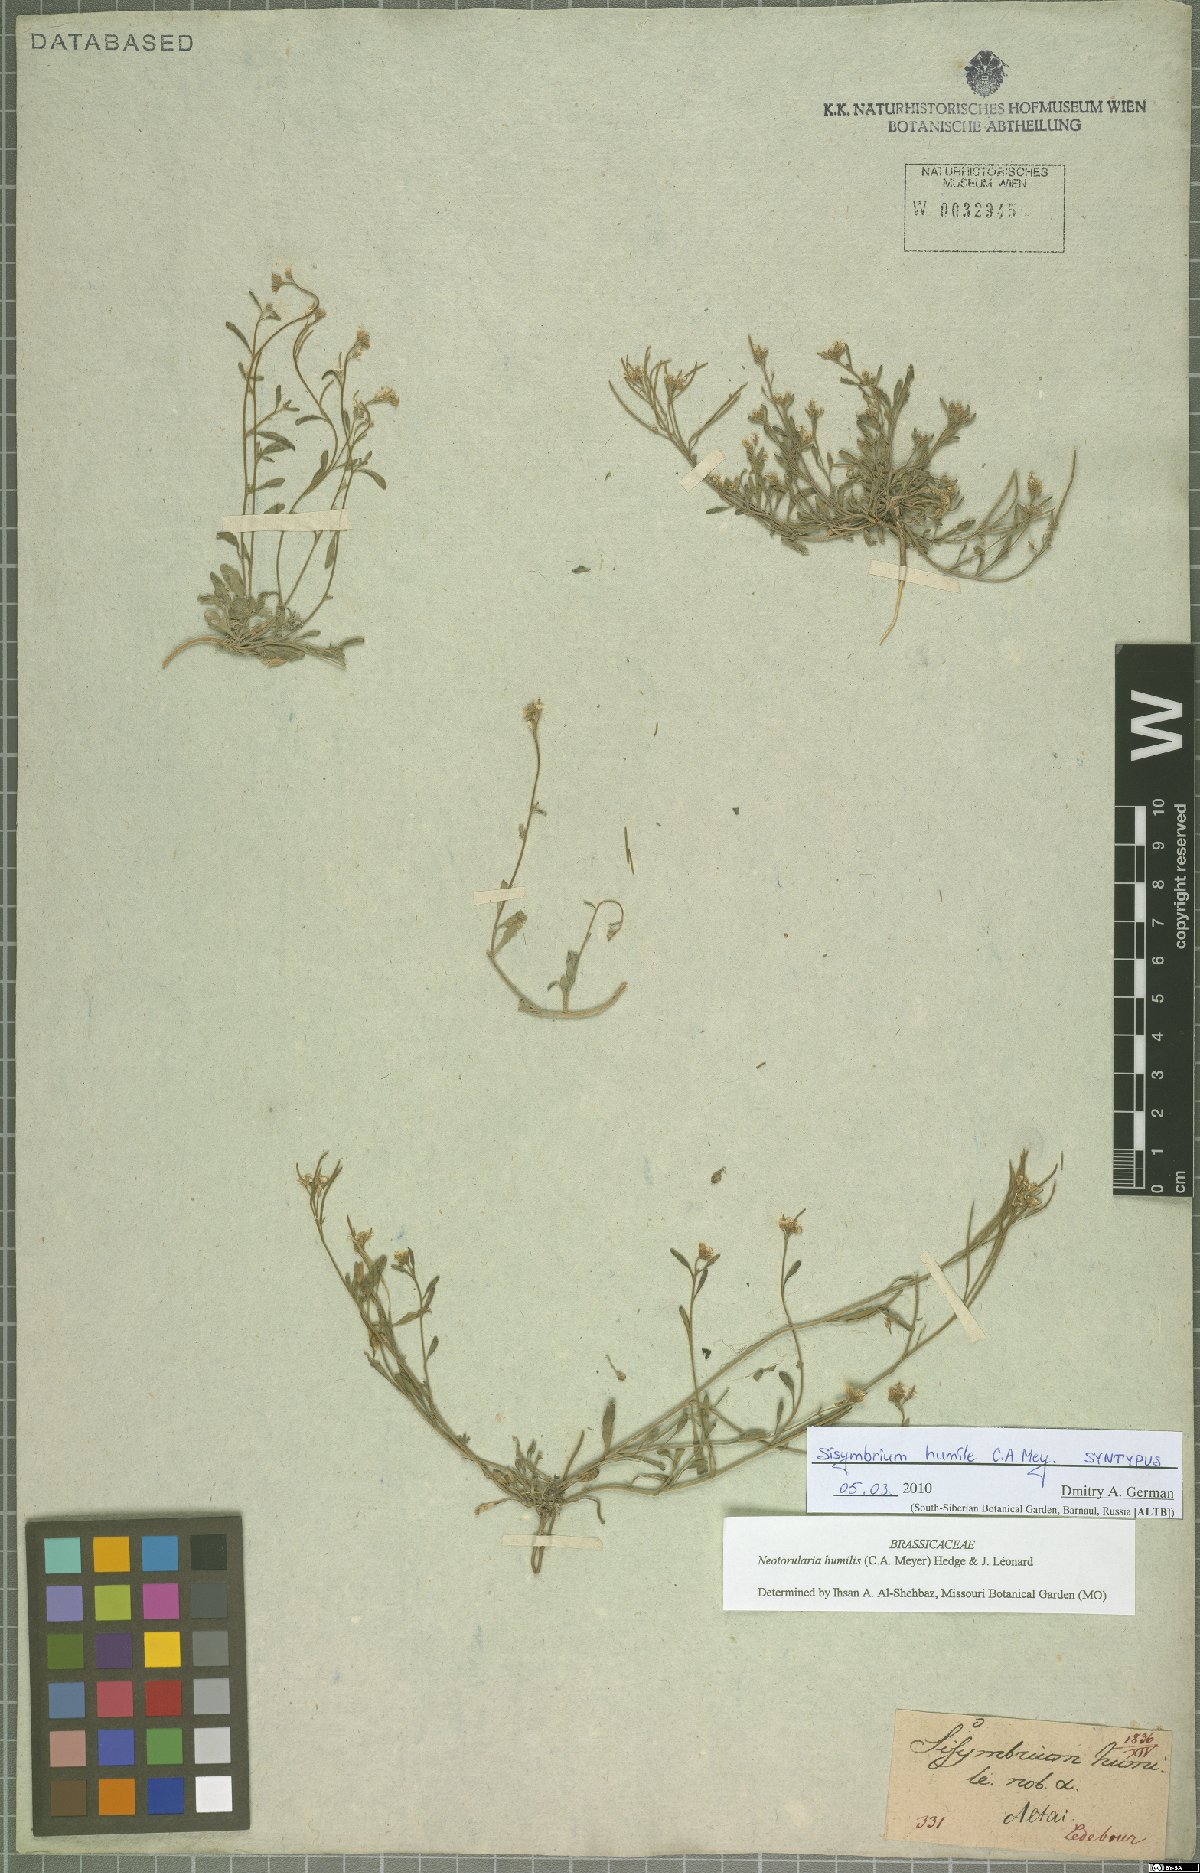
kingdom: Plantae
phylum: Tracheophyta
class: Magnoliopsida
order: Brassicales
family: Brassicaceae
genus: Braya
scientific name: Braya humilis
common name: Alpine northern rockcress
